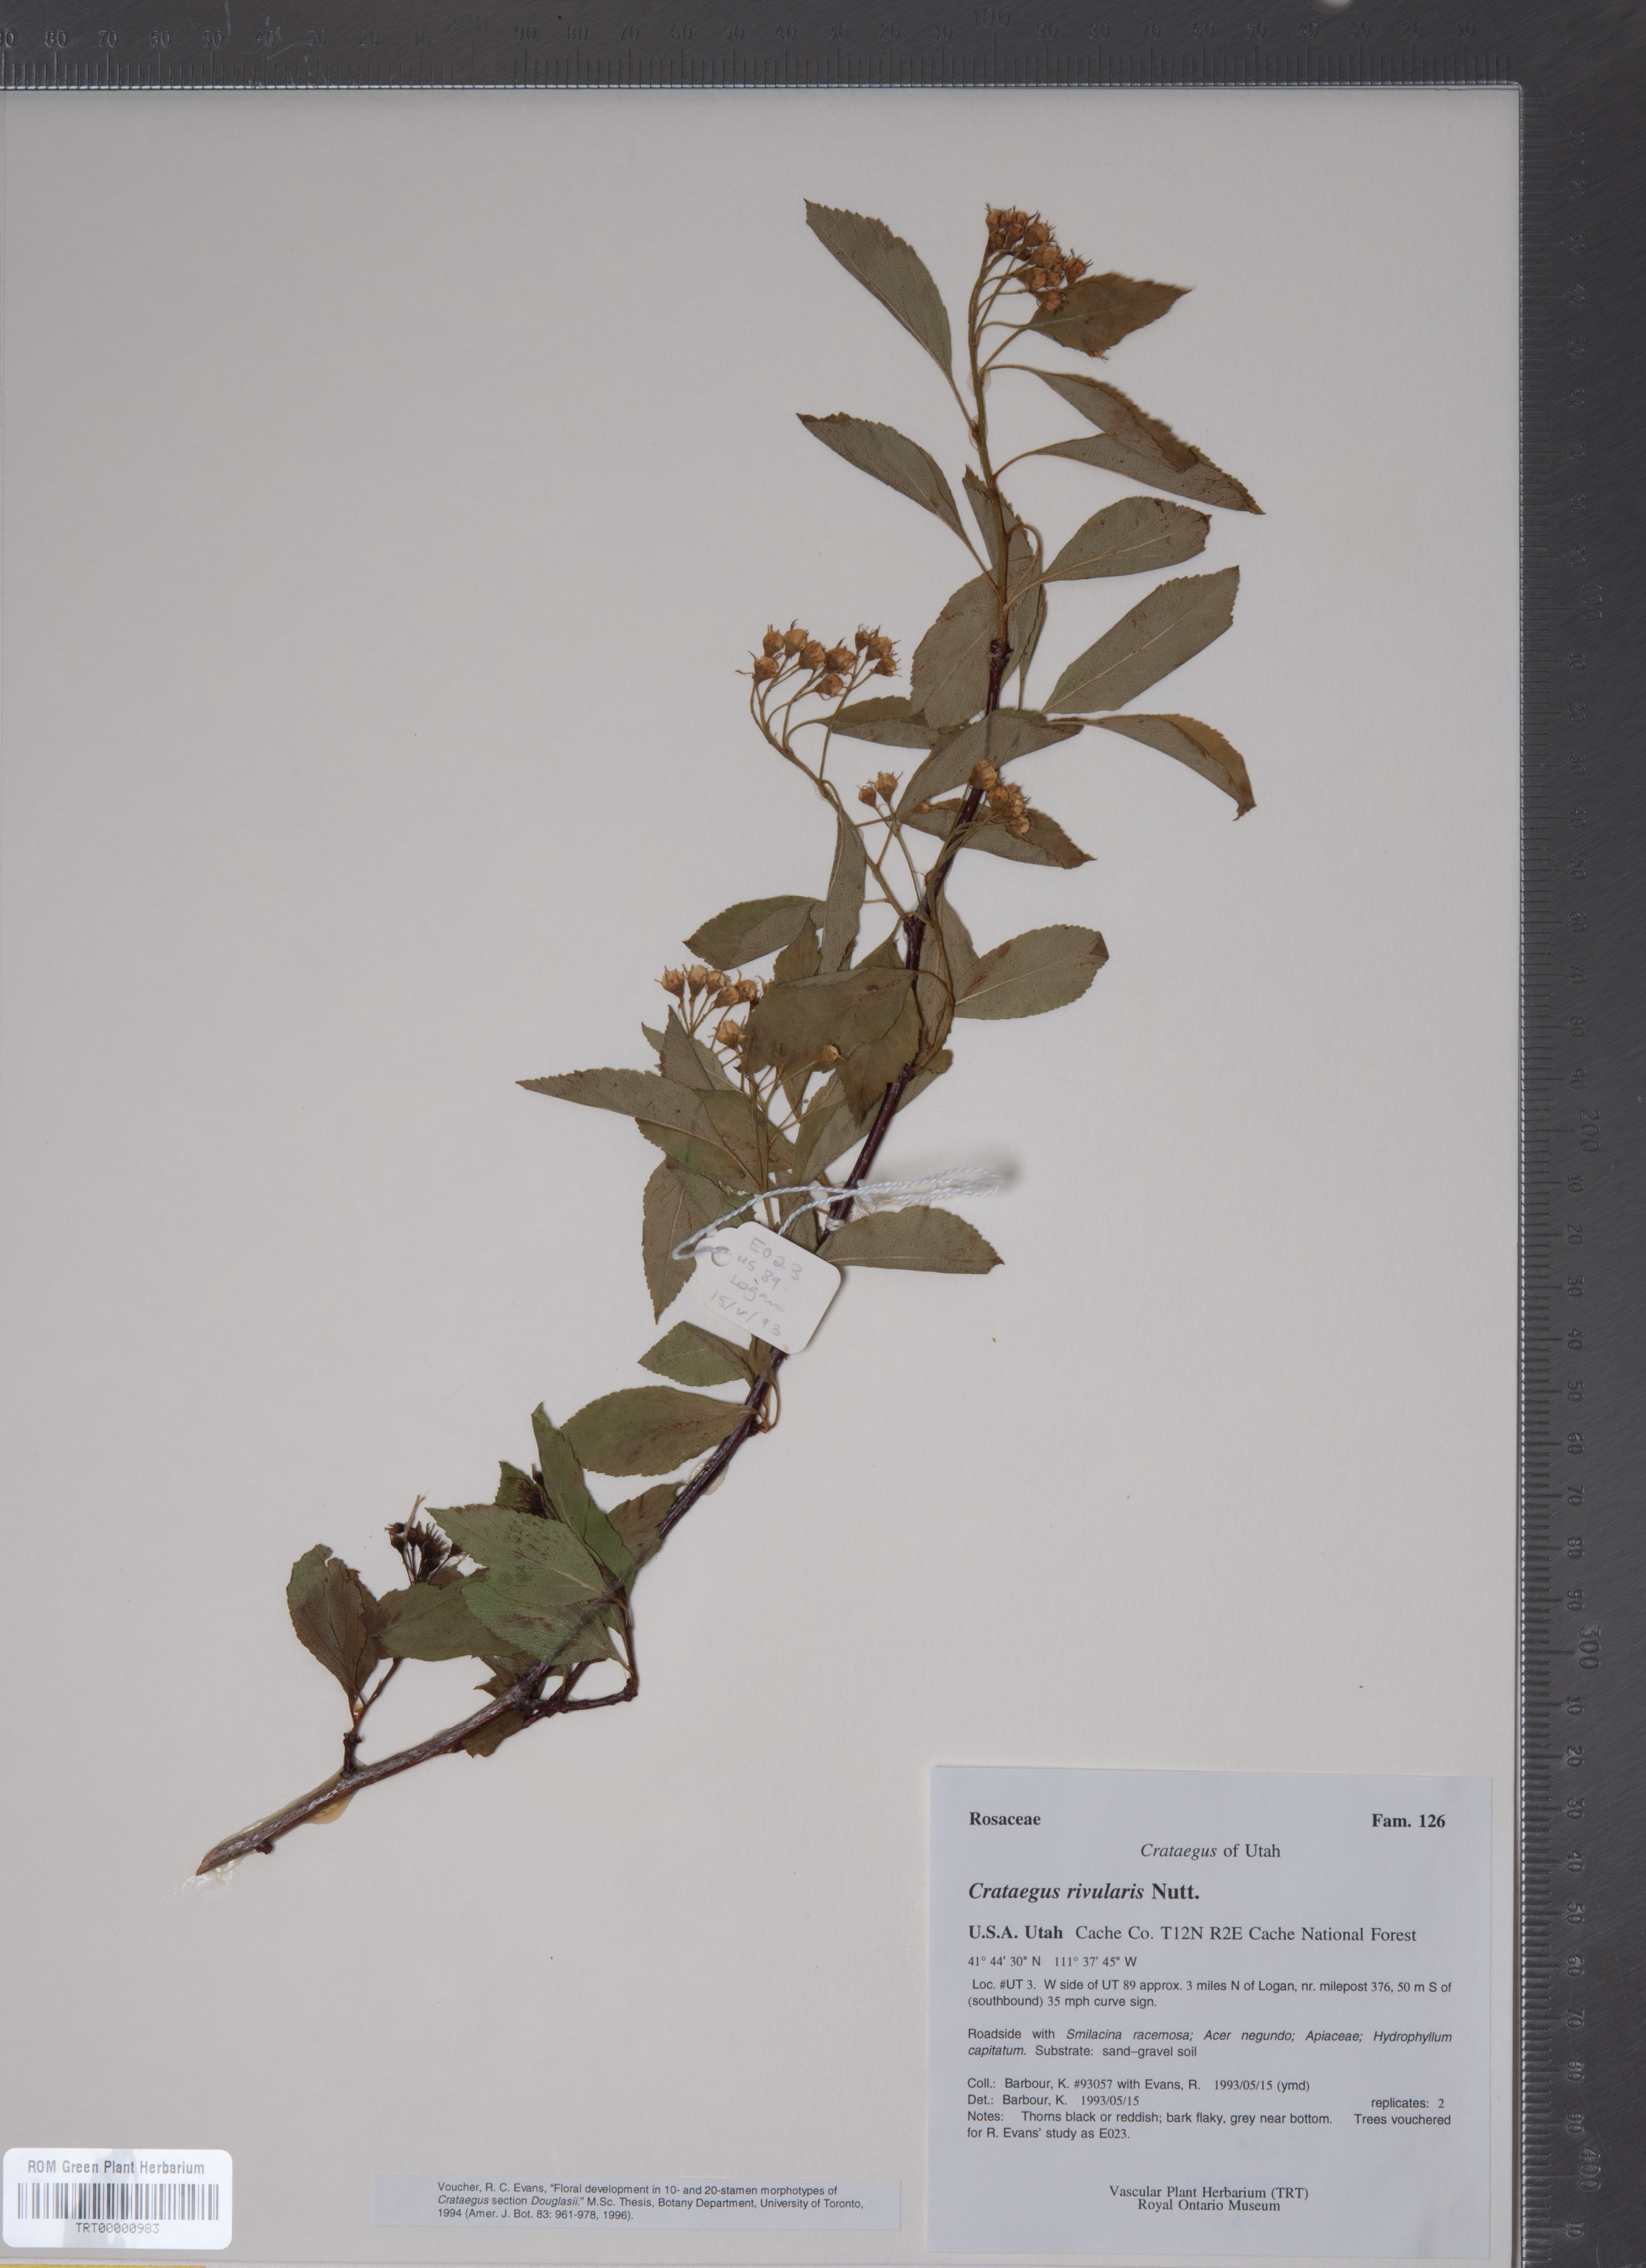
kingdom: Plantae
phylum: Tracheophyta
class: Magnoliopsida
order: Rosales
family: Rosaceae
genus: Crataegus
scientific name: Crataegus rivularis
